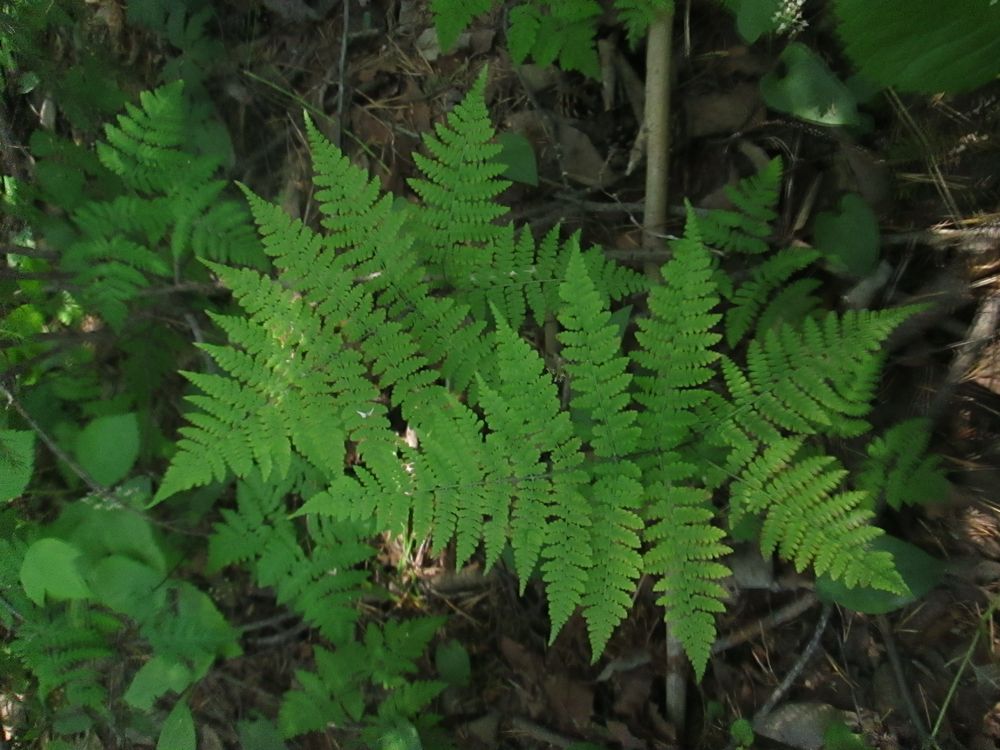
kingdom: Plantae
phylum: Tracheophyta
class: Polypodiopsida
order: Polypodiales
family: Athyriaceae
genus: Diplazium
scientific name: Diplazium sibiricum
